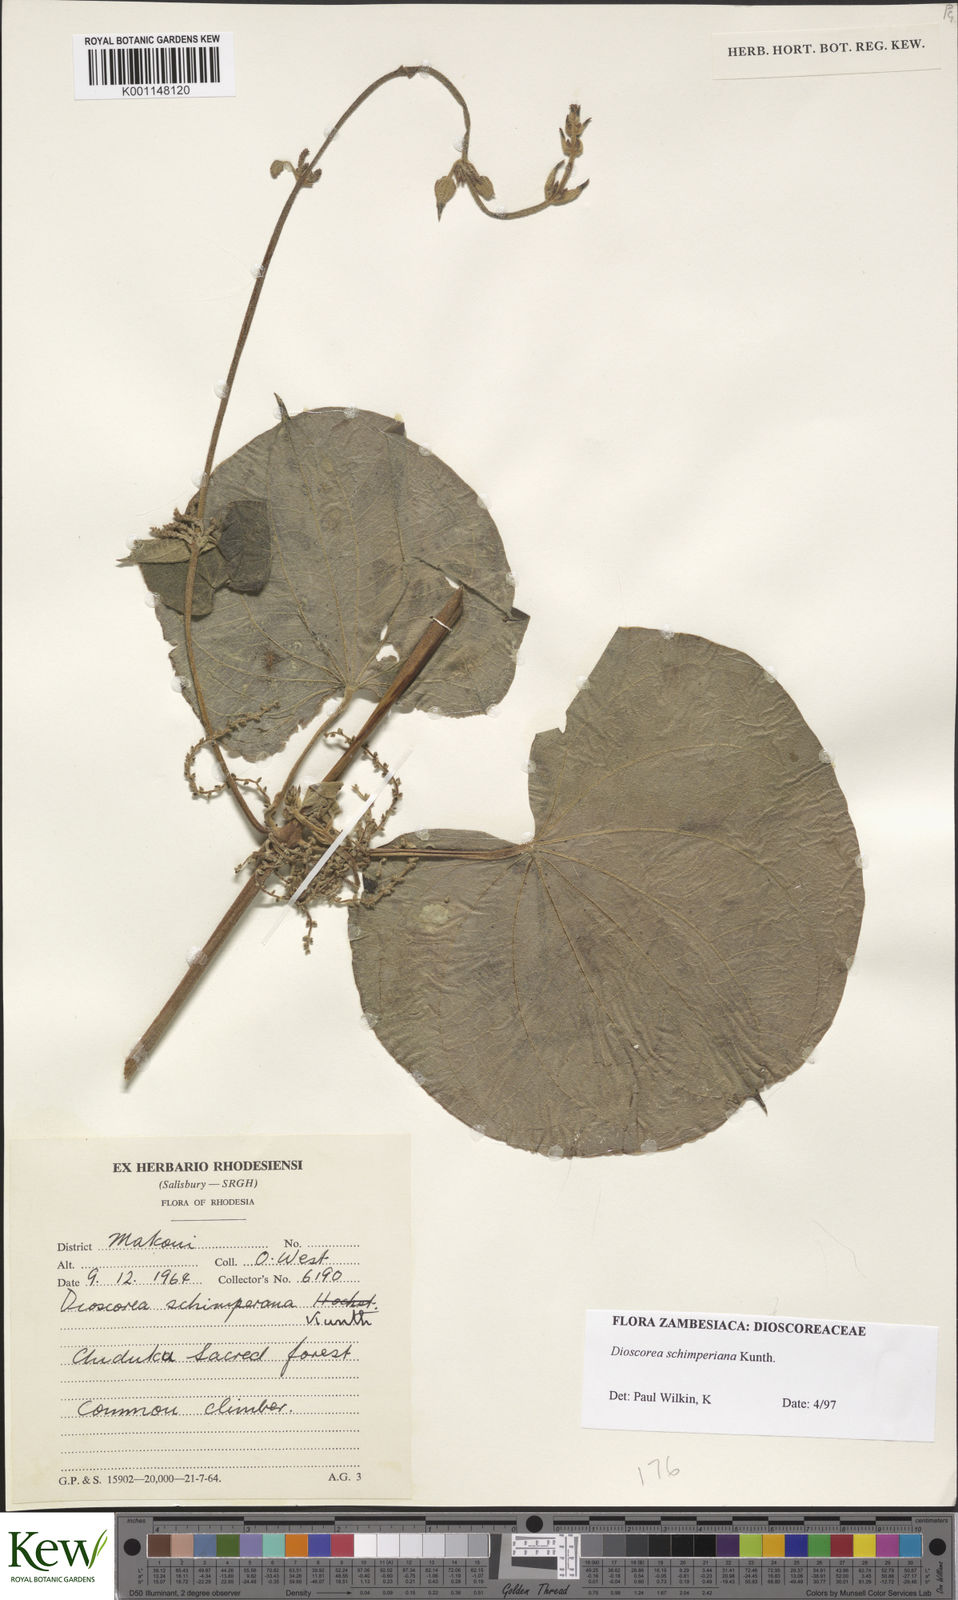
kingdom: Plantae
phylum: Tracheophyta
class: Liliopsida
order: Dioscoreales
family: Dioscoreaceae
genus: Dioscorea
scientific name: Dioscorea schimperiana
